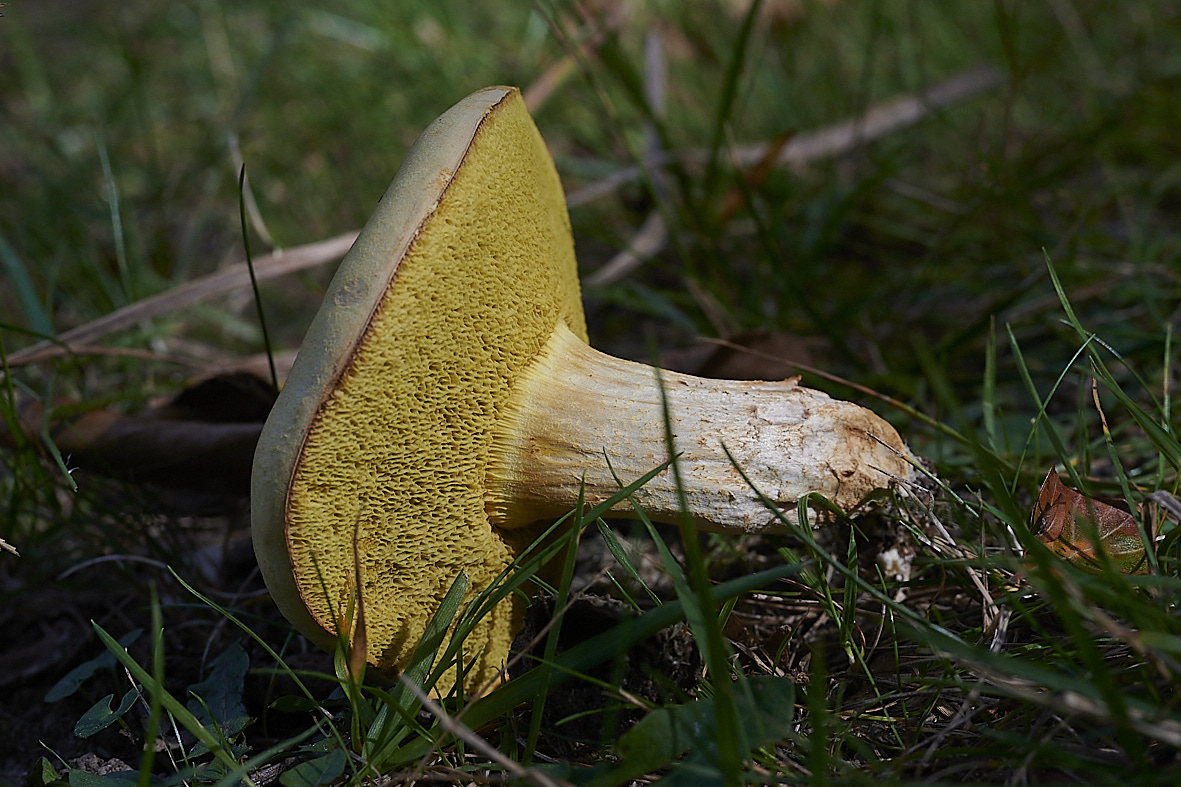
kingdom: Fungi
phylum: Basidiomycota
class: Agaricomycetes
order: Boletales
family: Boletaceae
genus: Xerocomus
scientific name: Xerocomus
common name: filtrørhat
